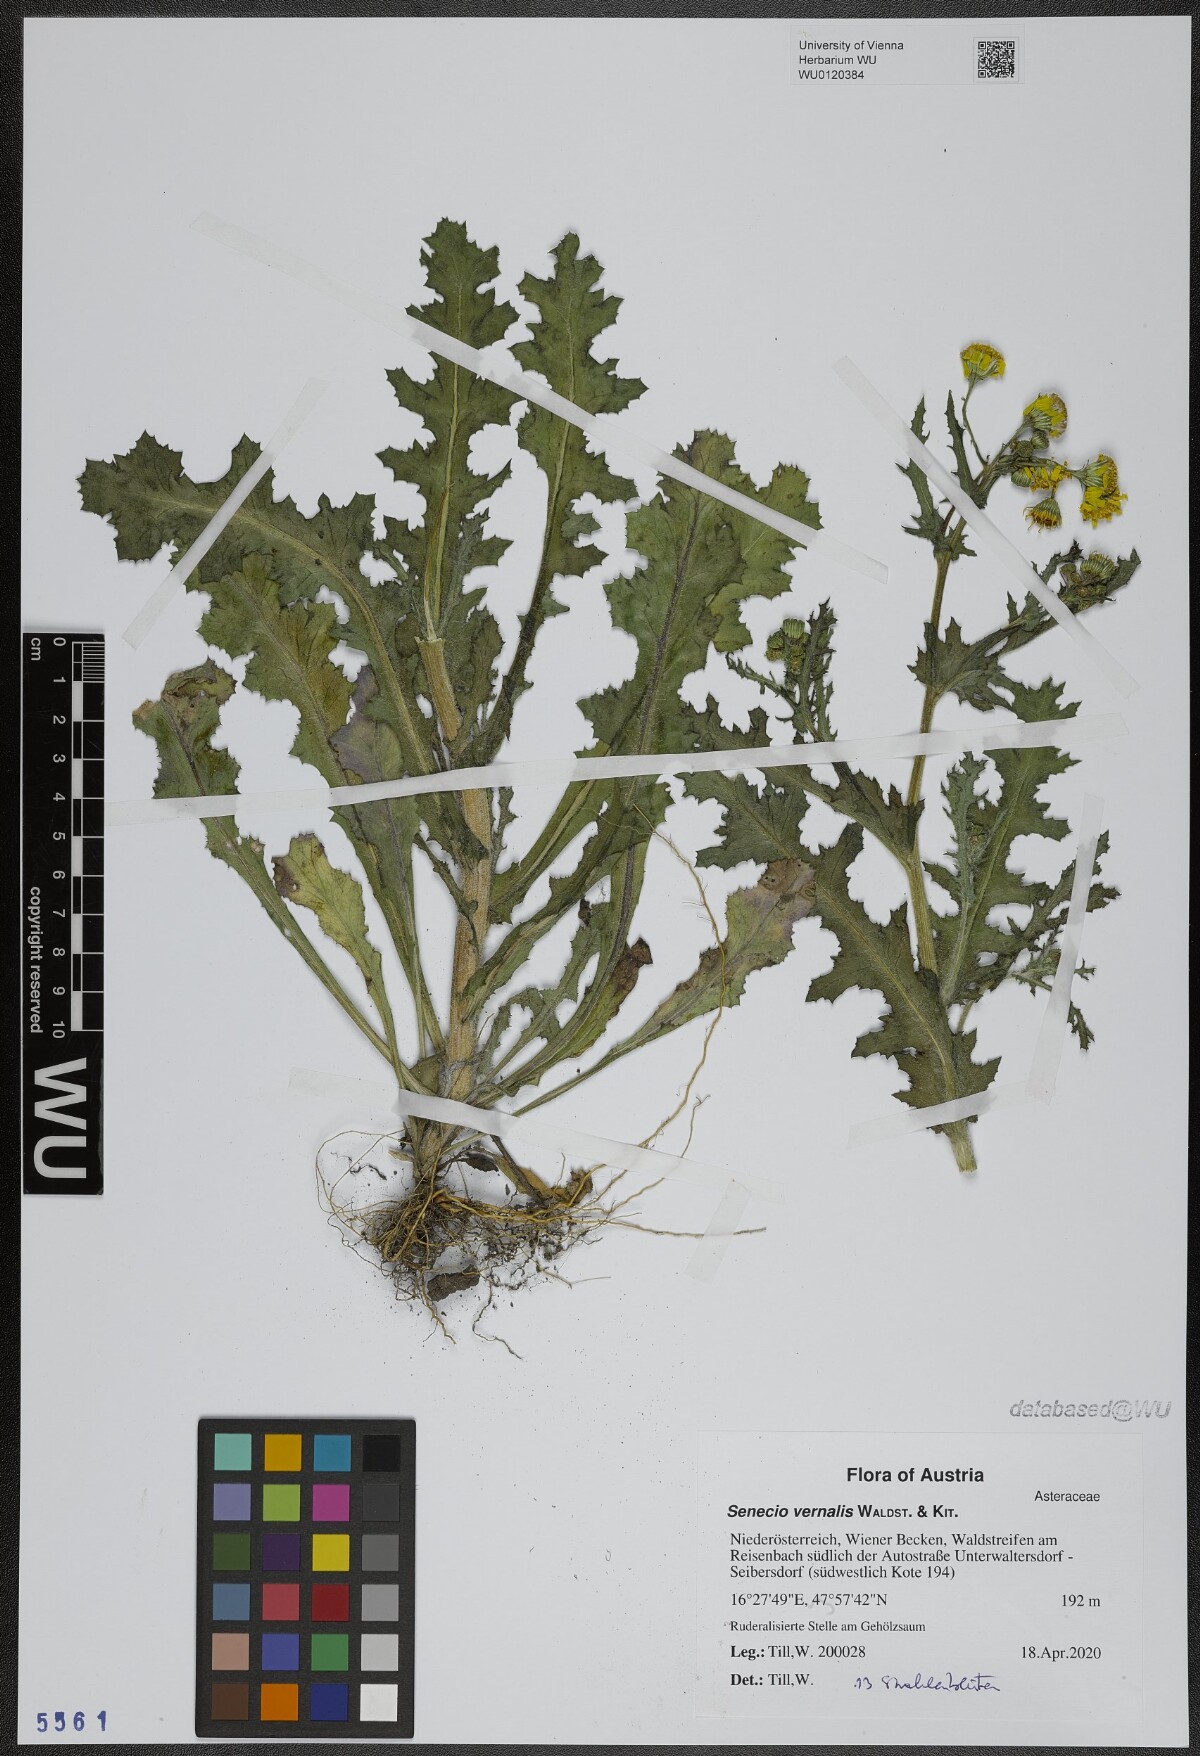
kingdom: Plantae
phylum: Tracheophyta
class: Magnoliopsida
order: Asterales
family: Asteraceae
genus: Senecio
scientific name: Senecio vernalis
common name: Eastern groundsel
